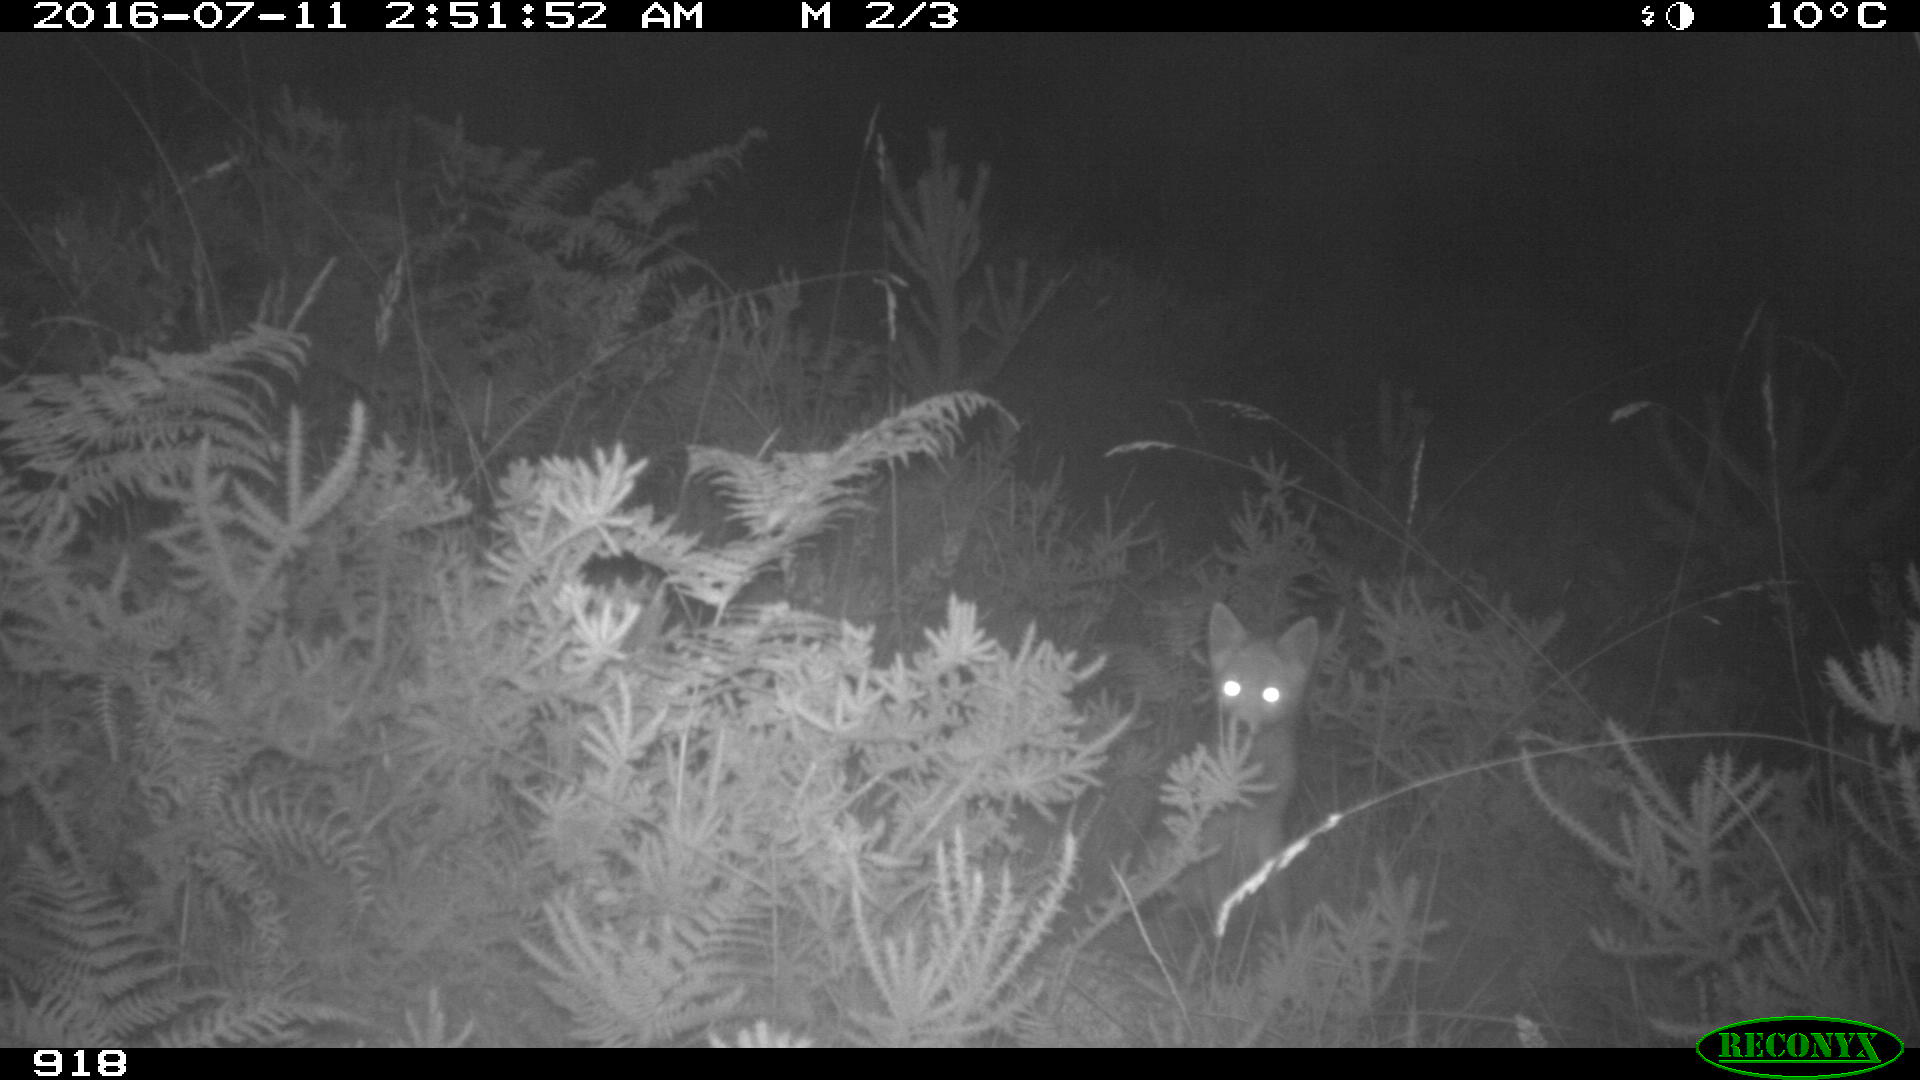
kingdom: Animalia
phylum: Chordata
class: Mammalia
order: Carnivora
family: Canidae
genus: Vulpes
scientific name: Vulpes vulpes
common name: Red fox
